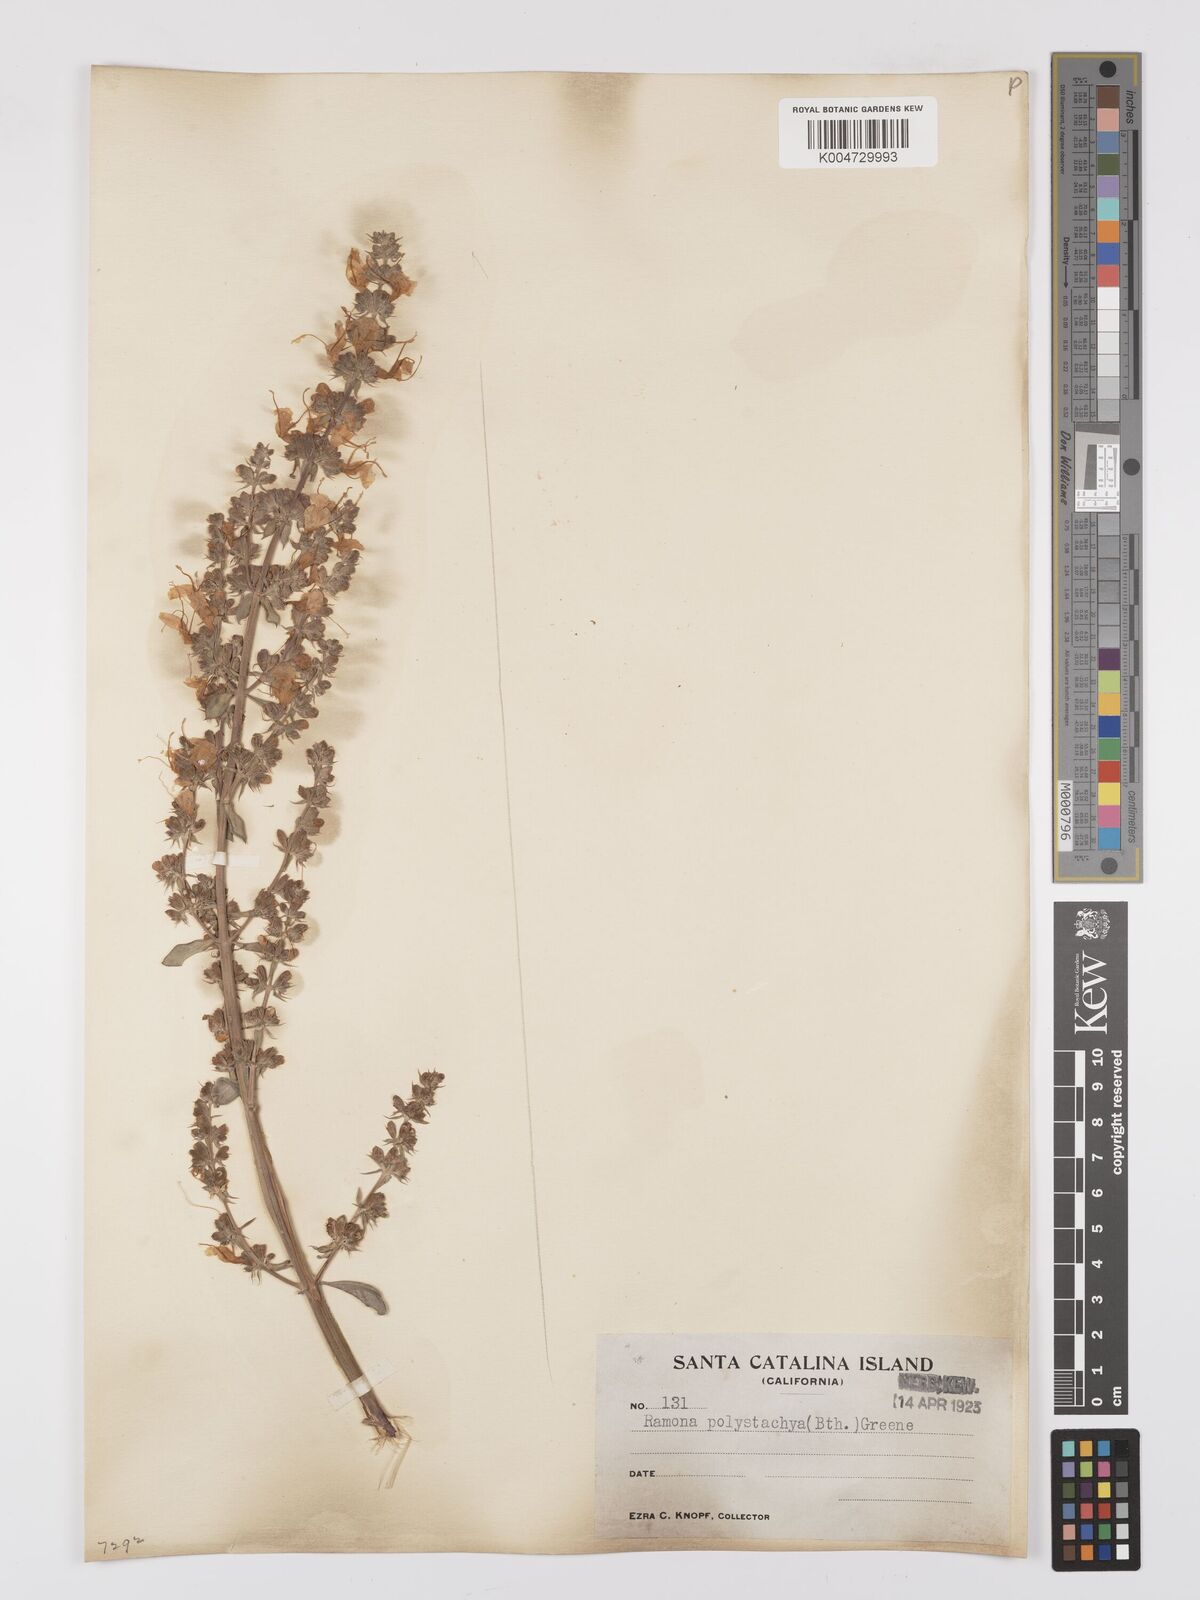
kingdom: Plantae
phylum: Tracheophyta
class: Magnoliopsida
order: Lamiales
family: Lamiaceae
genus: Salvia
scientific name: Salvia apiana
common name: White sage
